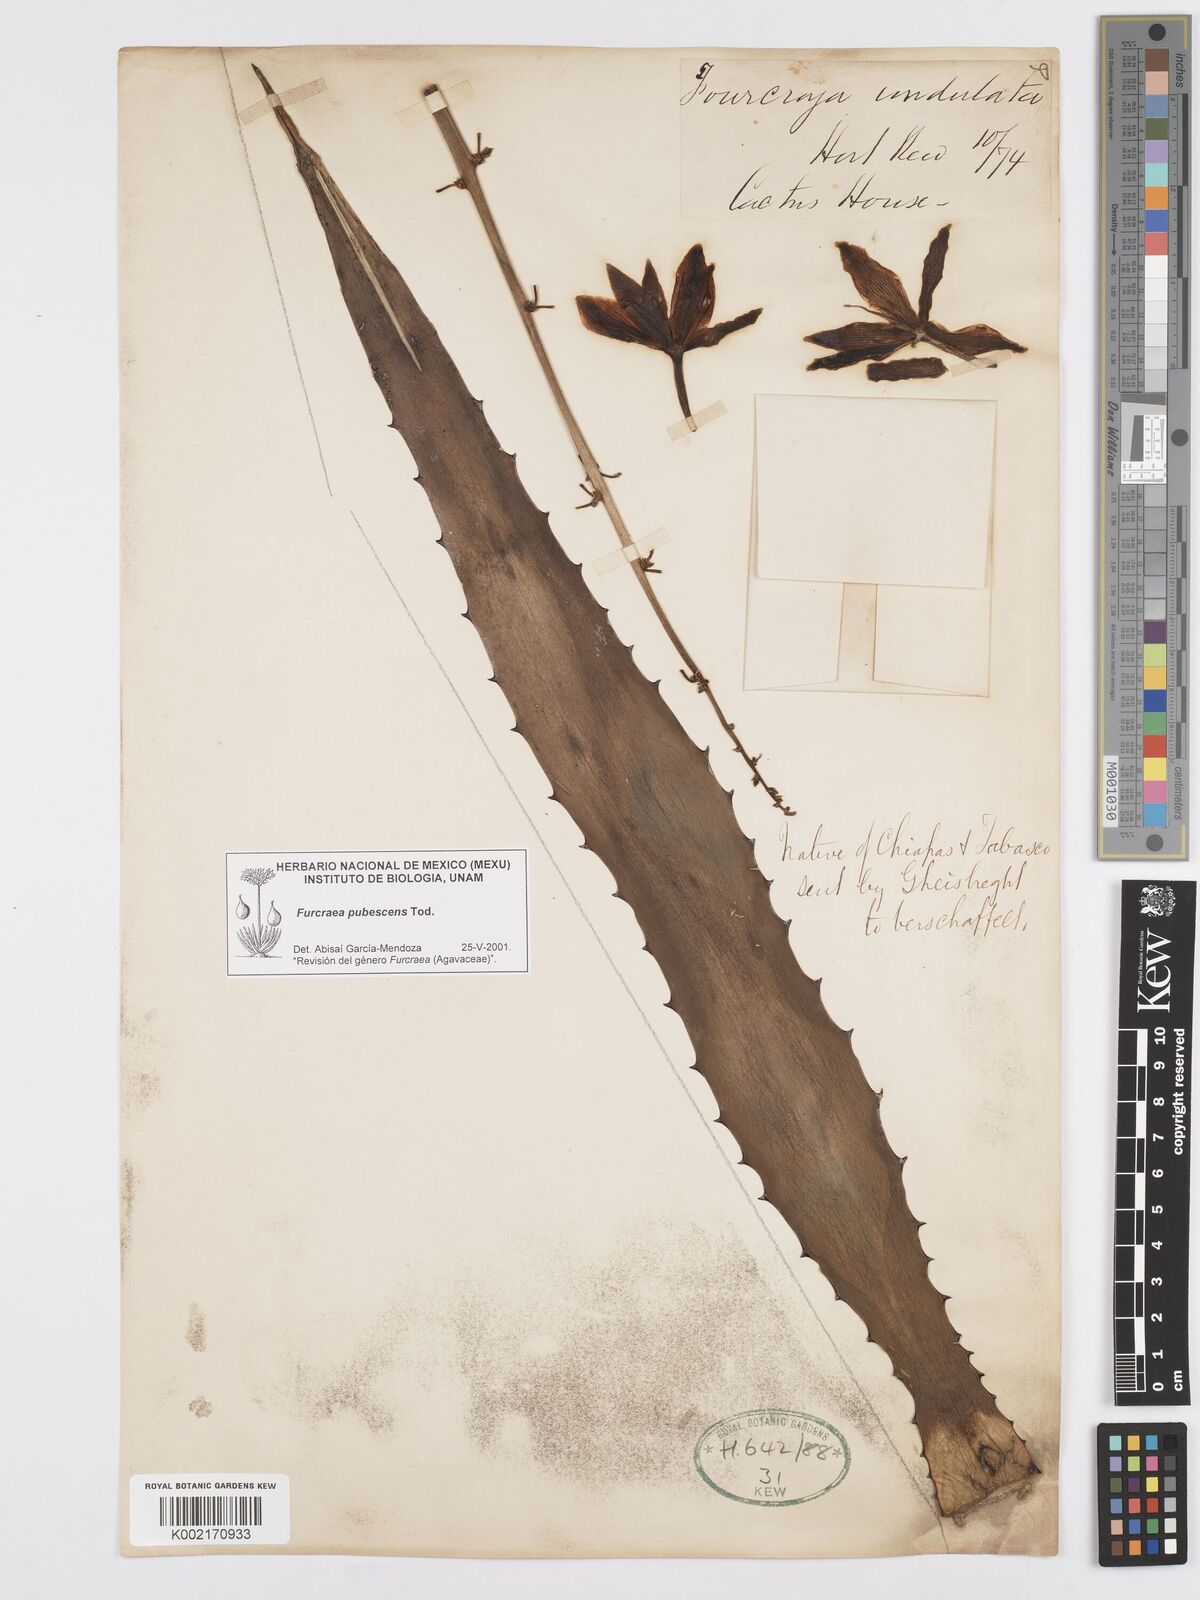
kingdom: Plantae
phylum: Tracheophyta
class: Liliopsida
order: Asparagales
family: Asparagaceae
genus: Furcraea
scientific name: Furcraea pubescens
